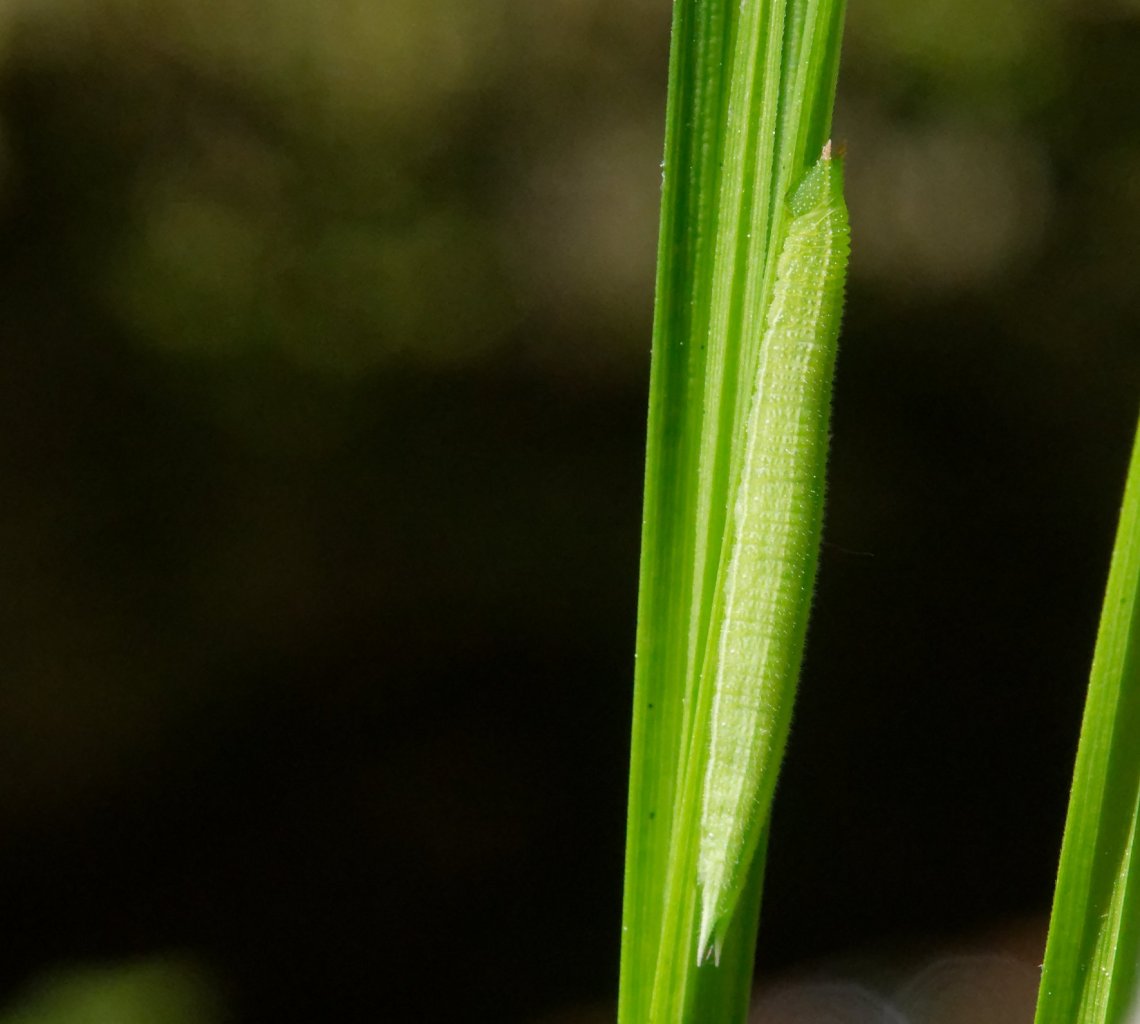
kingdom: Animalia
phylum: Arthropoda
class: Insecta
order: Lepidoptera
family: Nymphalidae
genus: Lethe
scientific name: Lethe anthedon
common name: Northern Pearly-Eye
